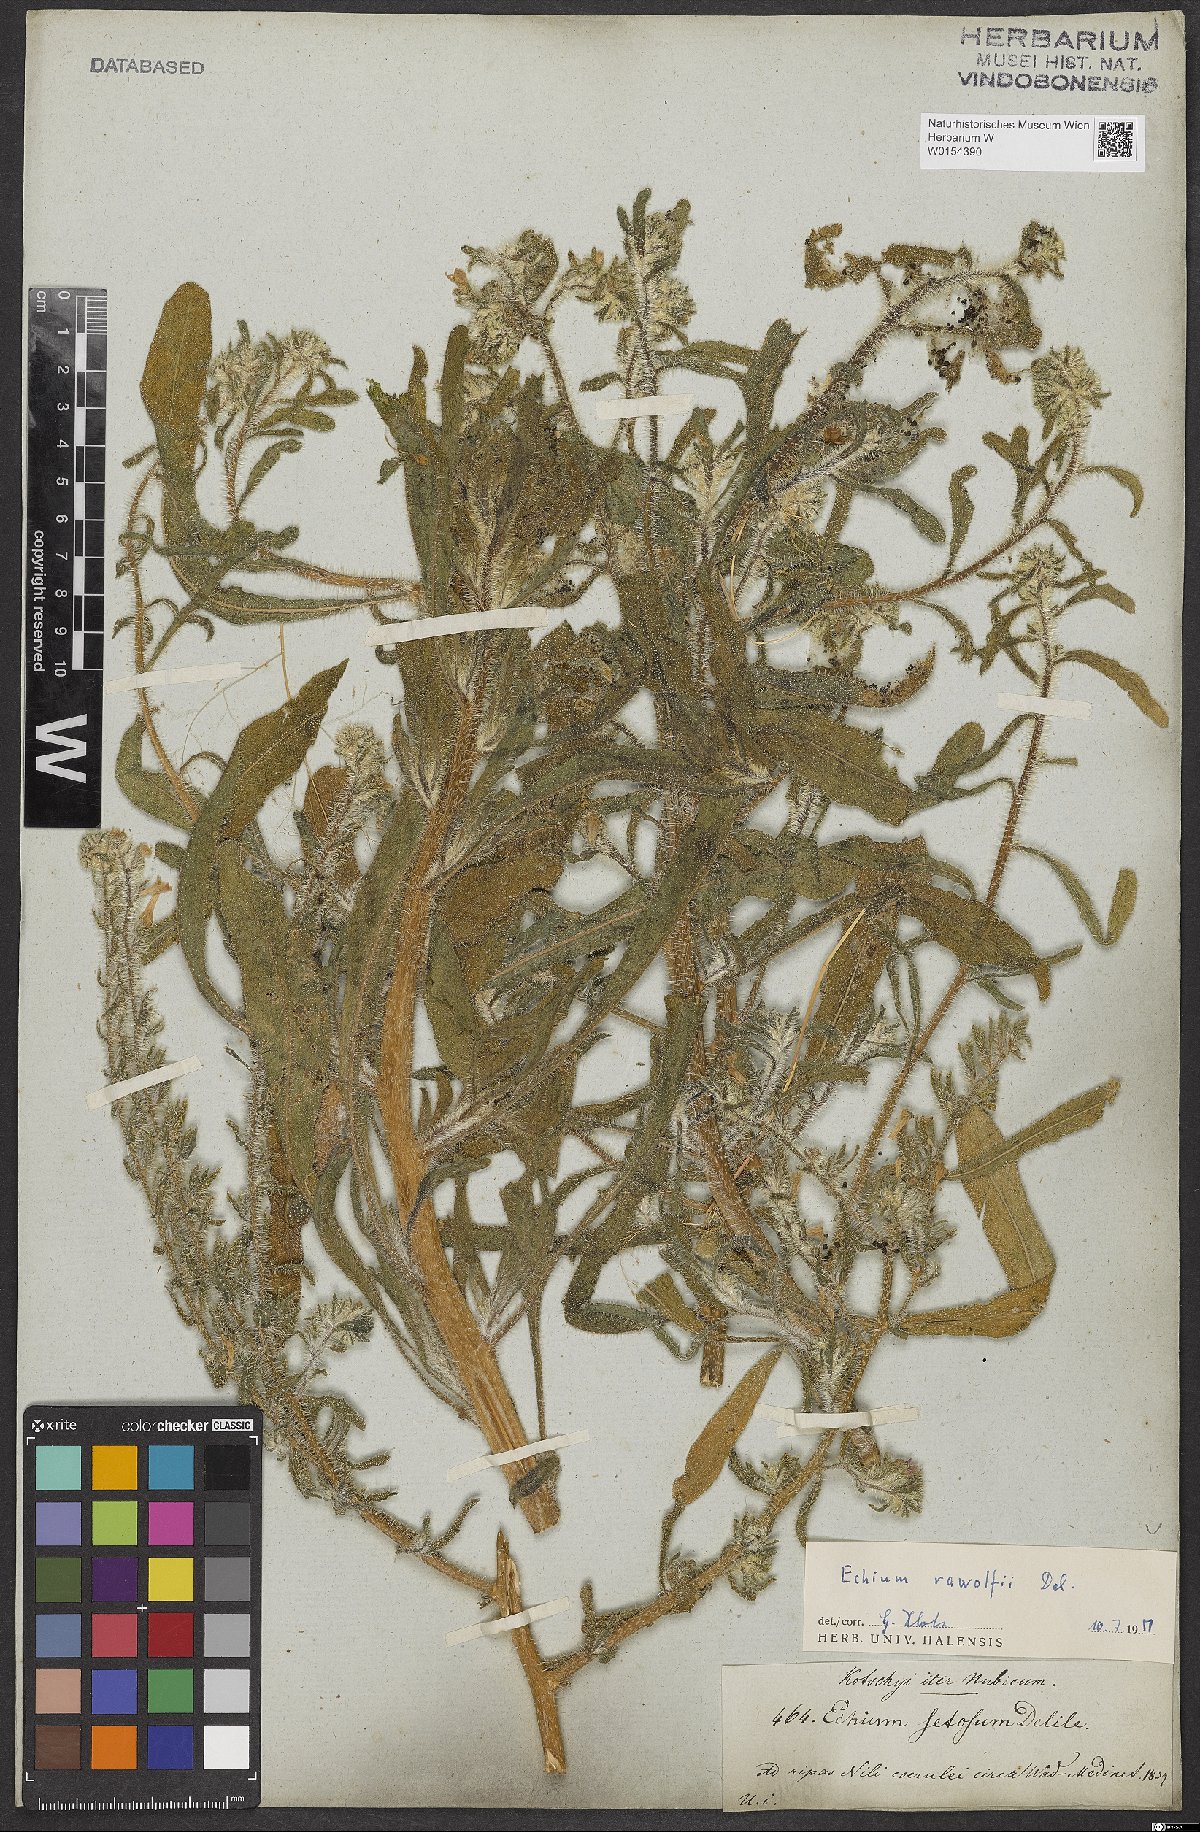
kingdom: Plantae
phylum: Tracheophyta
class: Magnoliopsida
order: Boraginales
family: Boraginaceae
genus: Echium
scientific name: Echium rauwolfii
